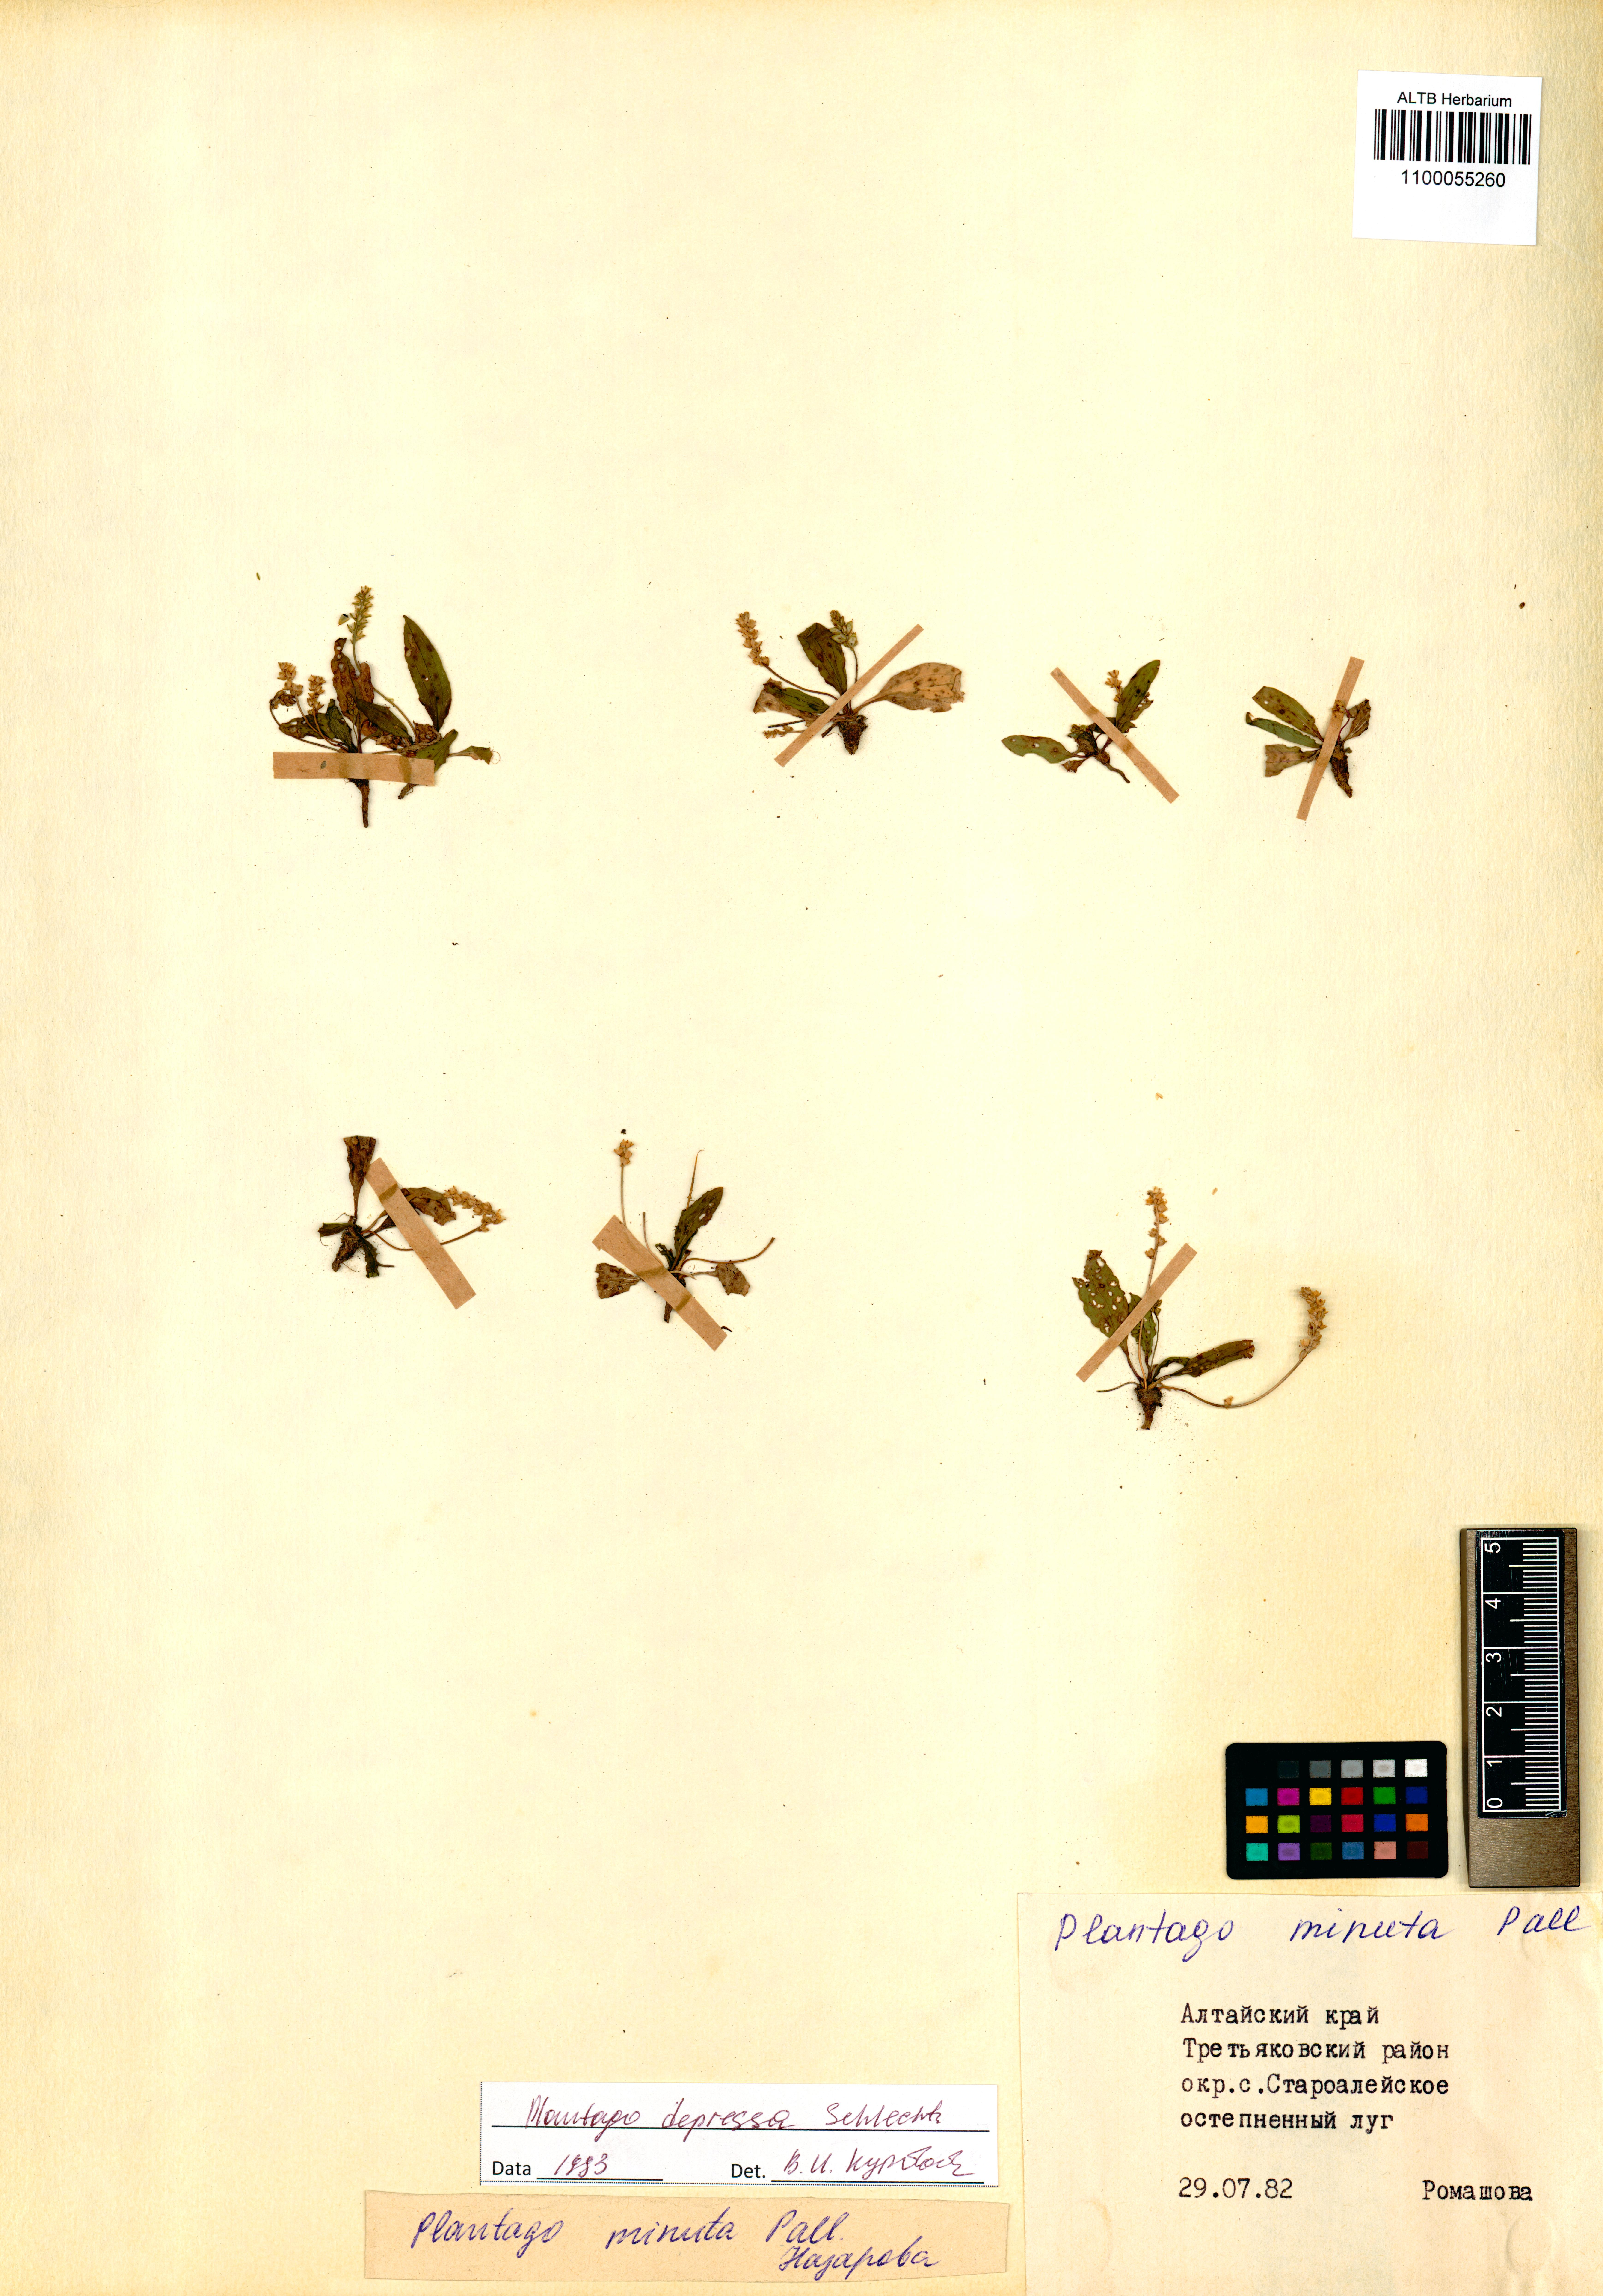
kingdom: Plantae
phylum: Tracheophyta
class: Magnoliopsida
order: Lamiales
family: Plantaginaceae
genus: Plantago
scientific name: Plantago depressa
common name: Depressed plantain
